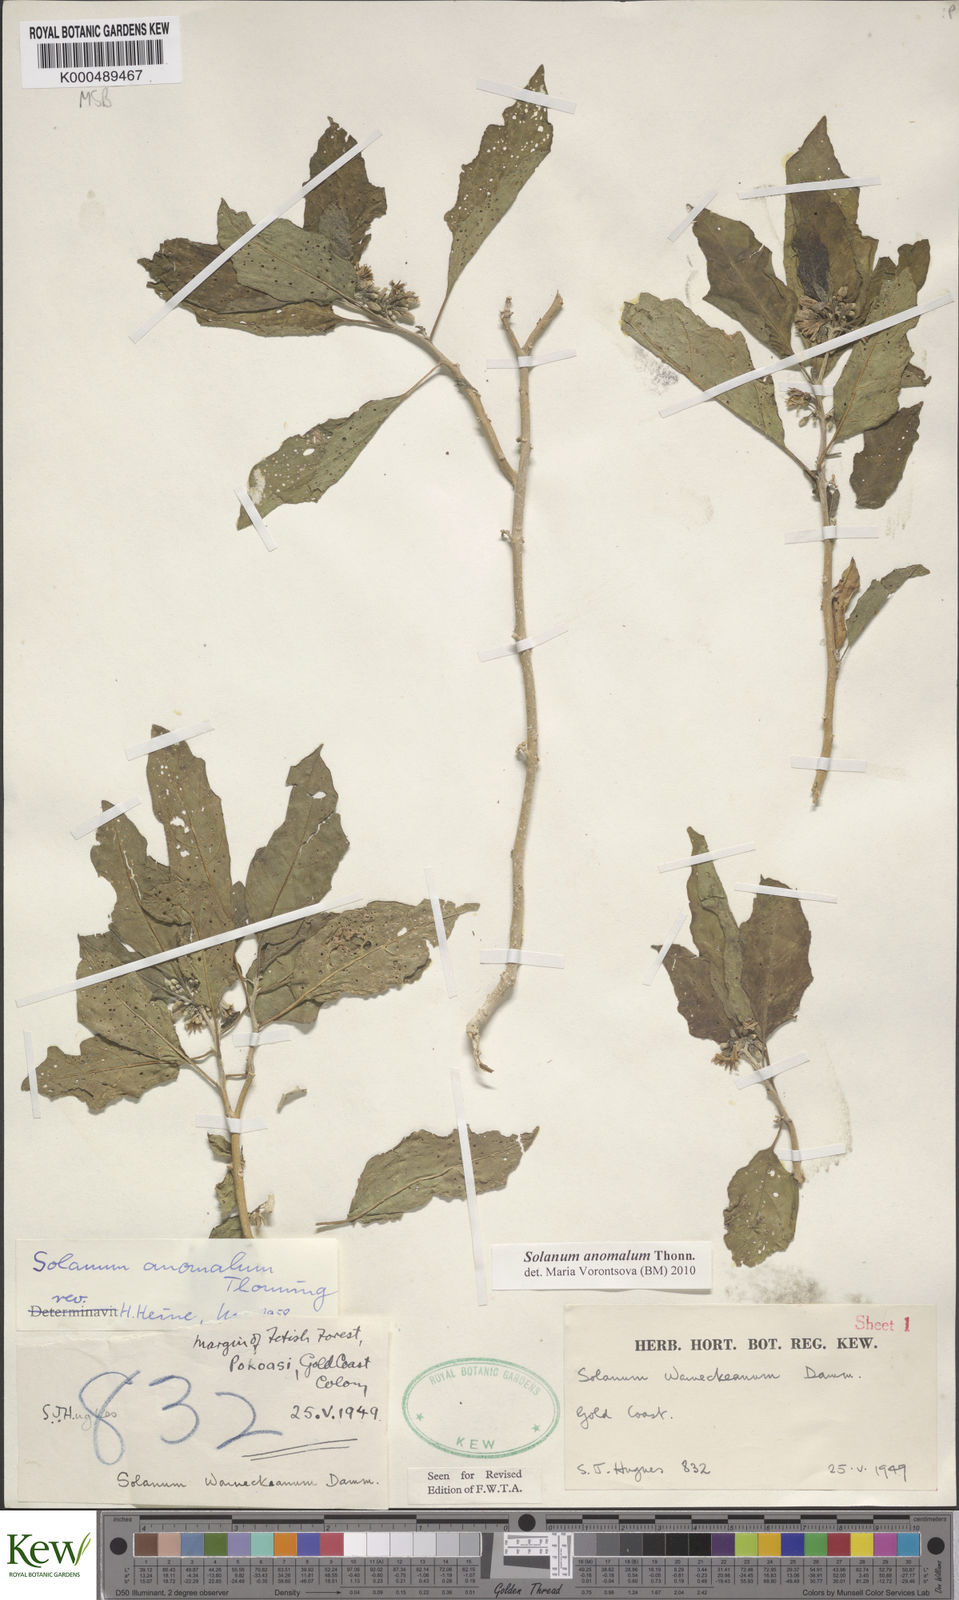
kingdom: Plantae
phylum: Tracheophyta
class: Magnoliopsida
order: Solanales
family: Solanaceae
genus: Solanum
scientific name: Solanum anomalum
